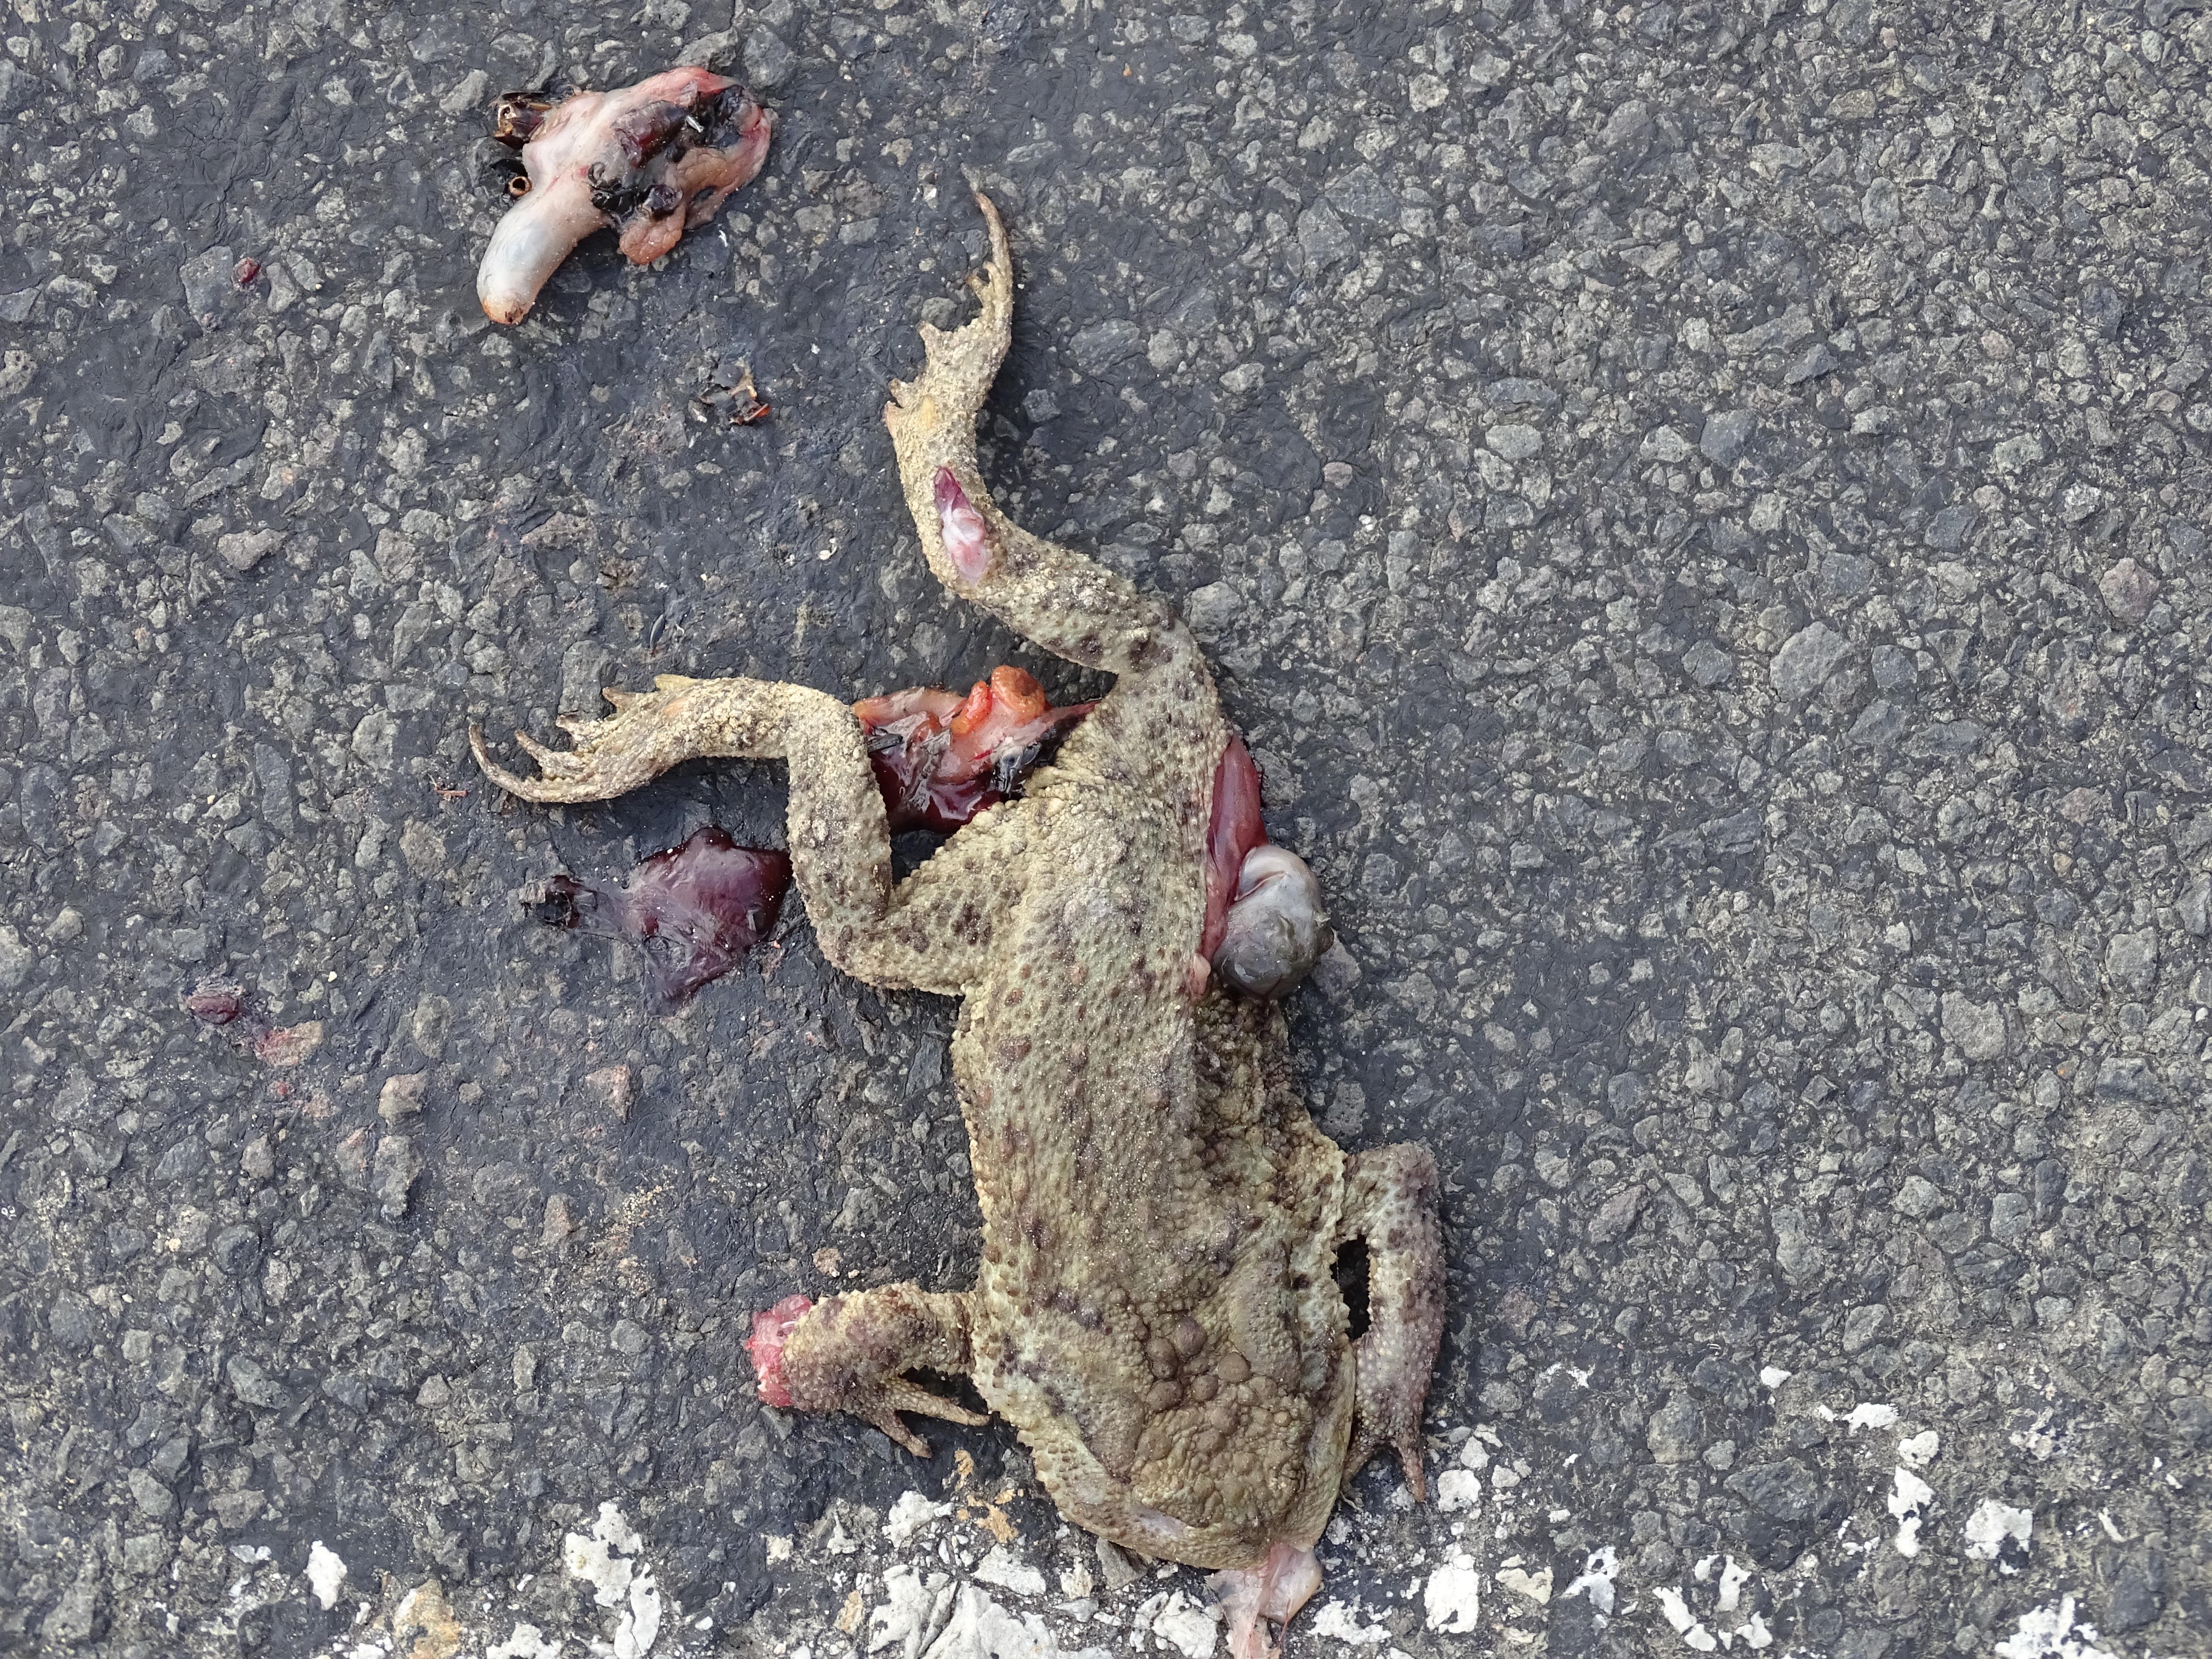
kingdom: Animalia
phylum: Chordata
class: Amphibia
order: Anura
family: Bufonidae
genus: Bufo
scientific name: Bufo bufo
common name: Common toad
